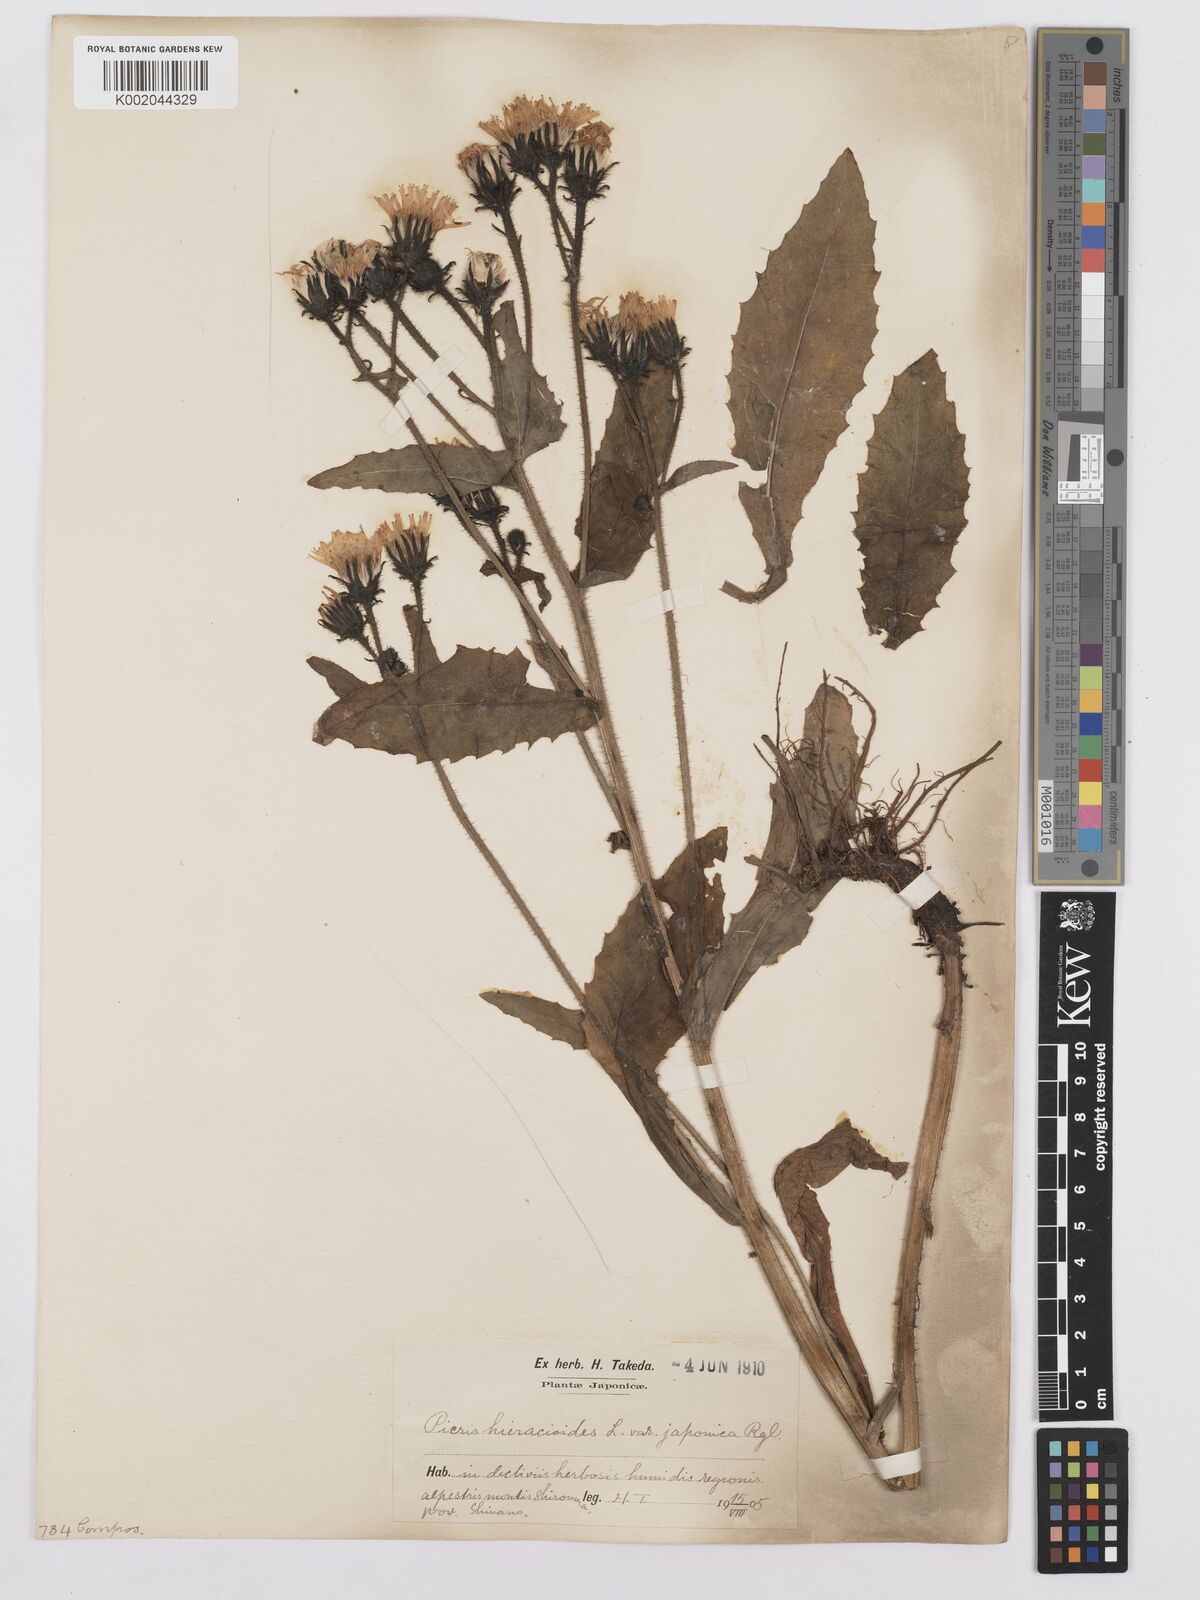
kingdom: Plantae
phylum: Tracheophyta
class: Magnoliopsida
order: Asterales
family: Asteraceae
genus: Picris
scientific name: Picris hieracioides
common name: Hawkweed oxtongue
